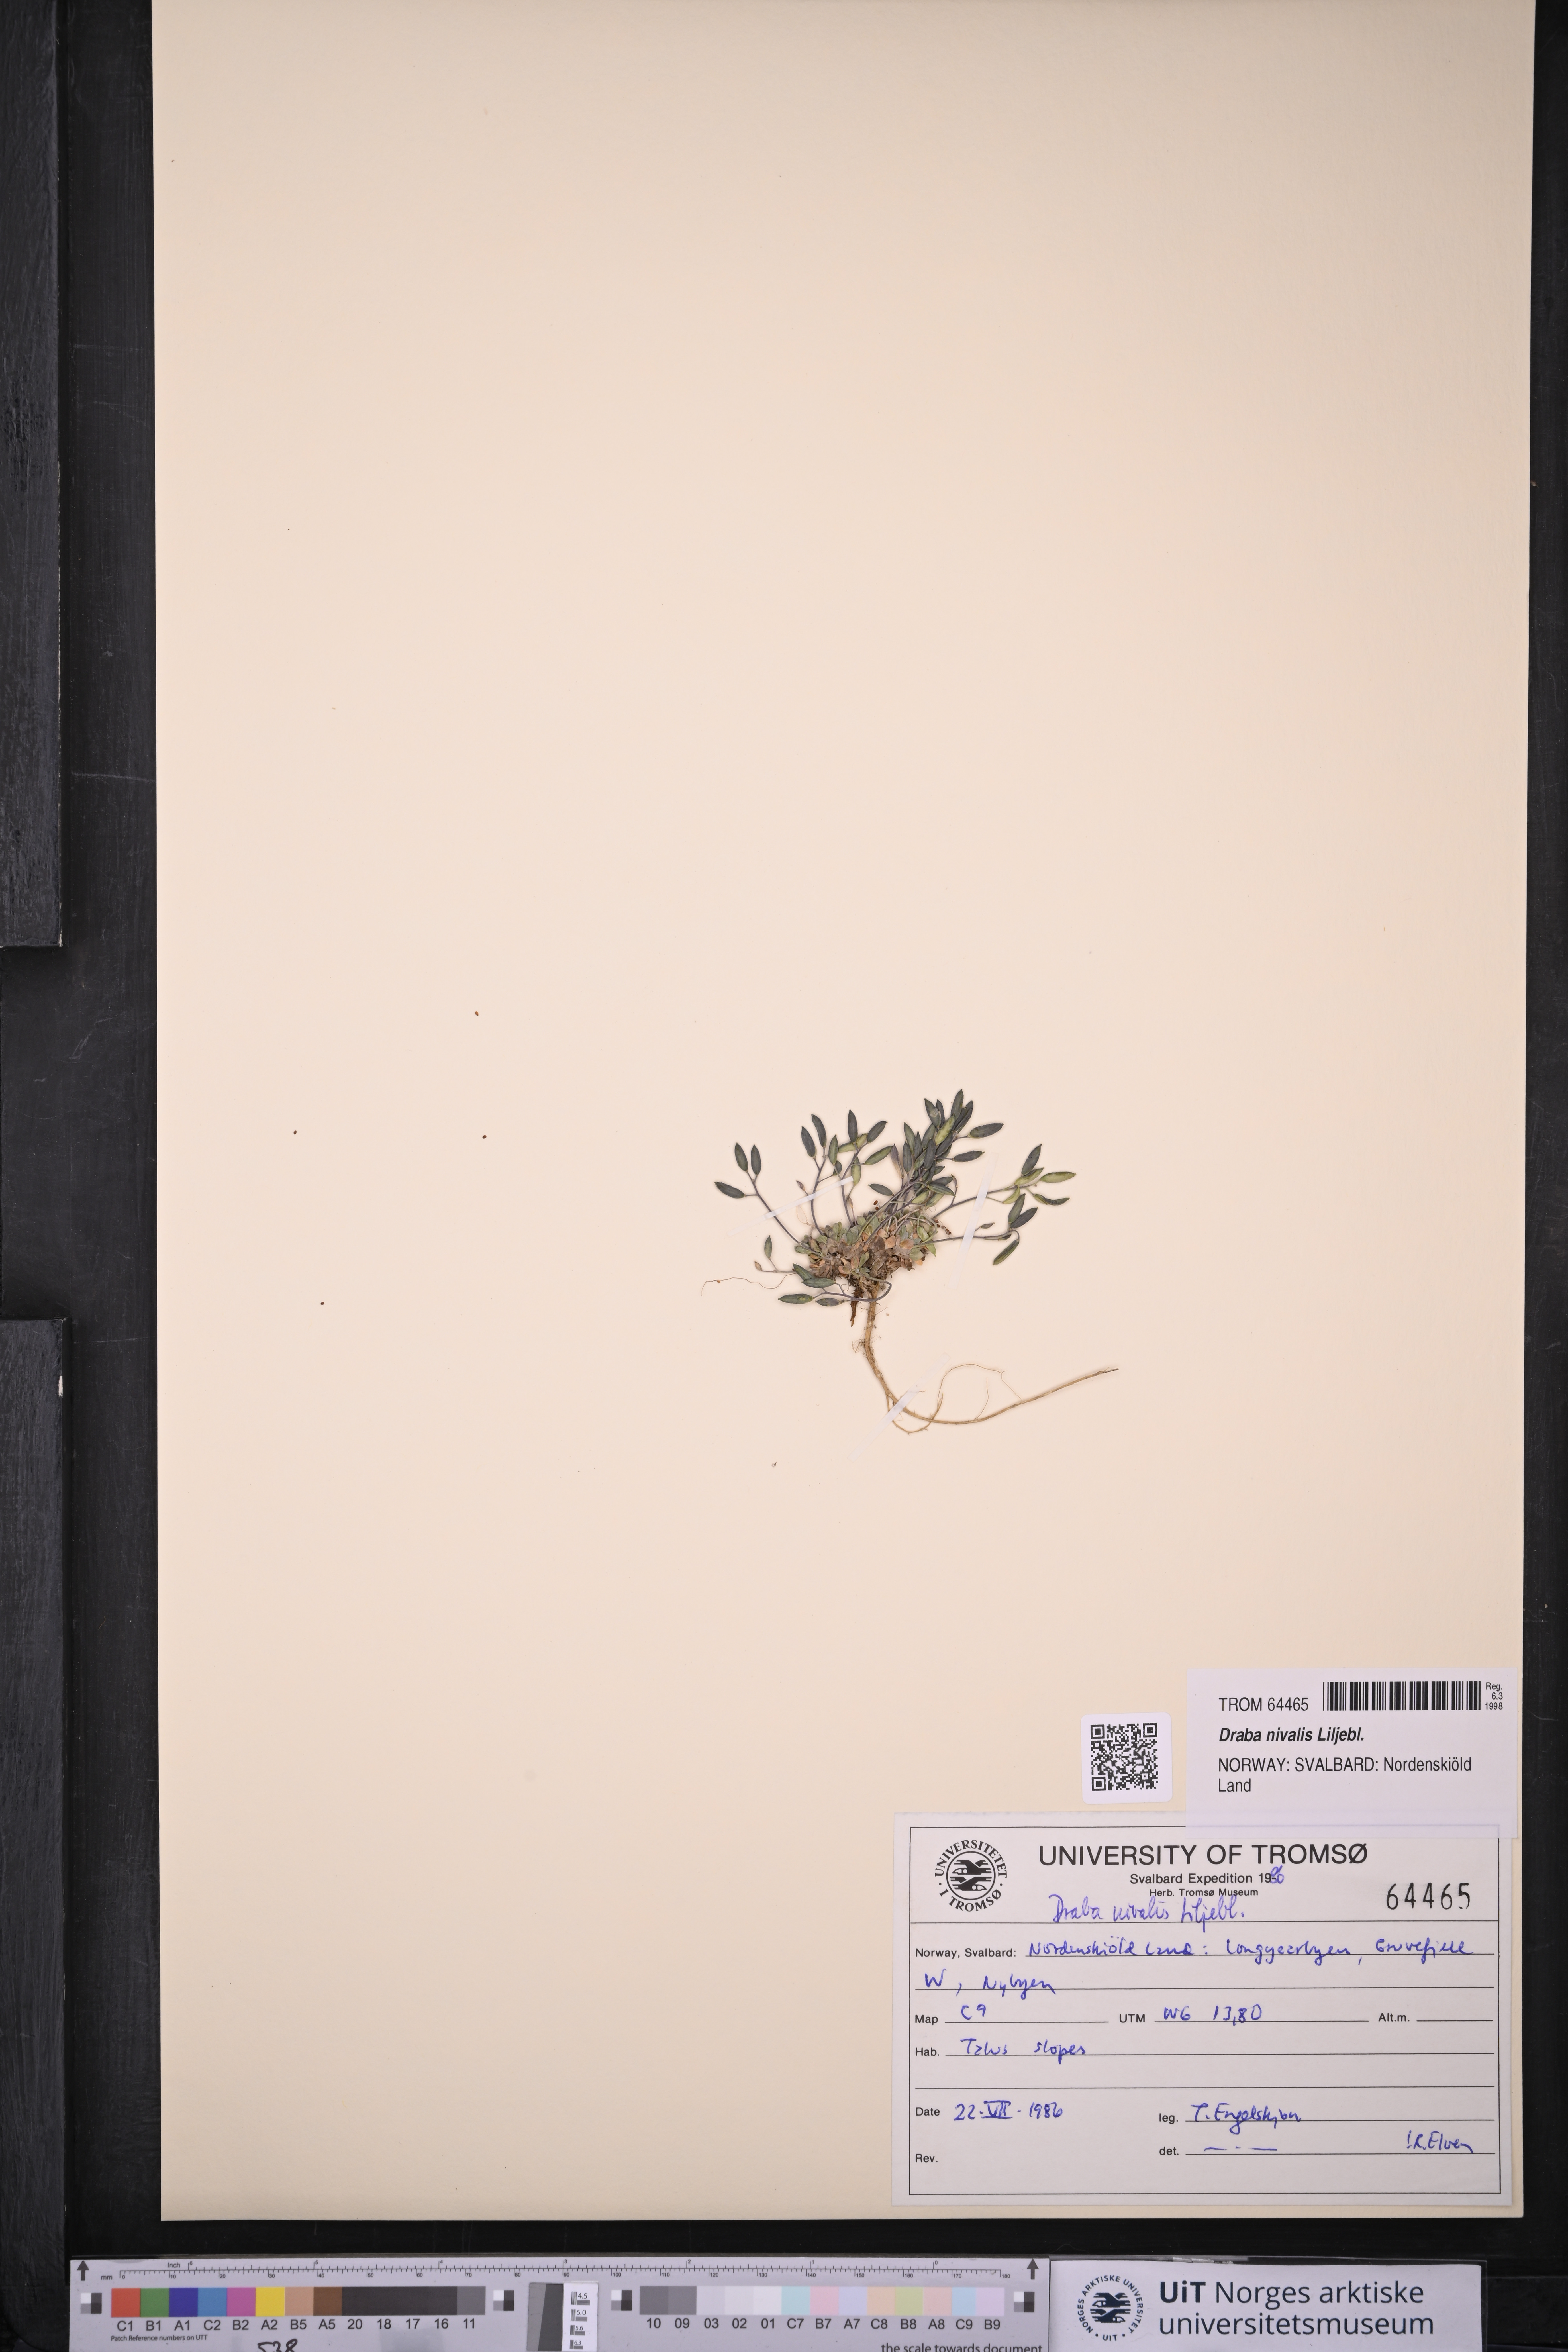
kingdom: Plantae
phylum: Tracheophyta
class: Magnoliopsida
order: Brassicales
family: Brassicaceae
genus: Draba
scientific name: Draba nivalis
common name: Snow draba
